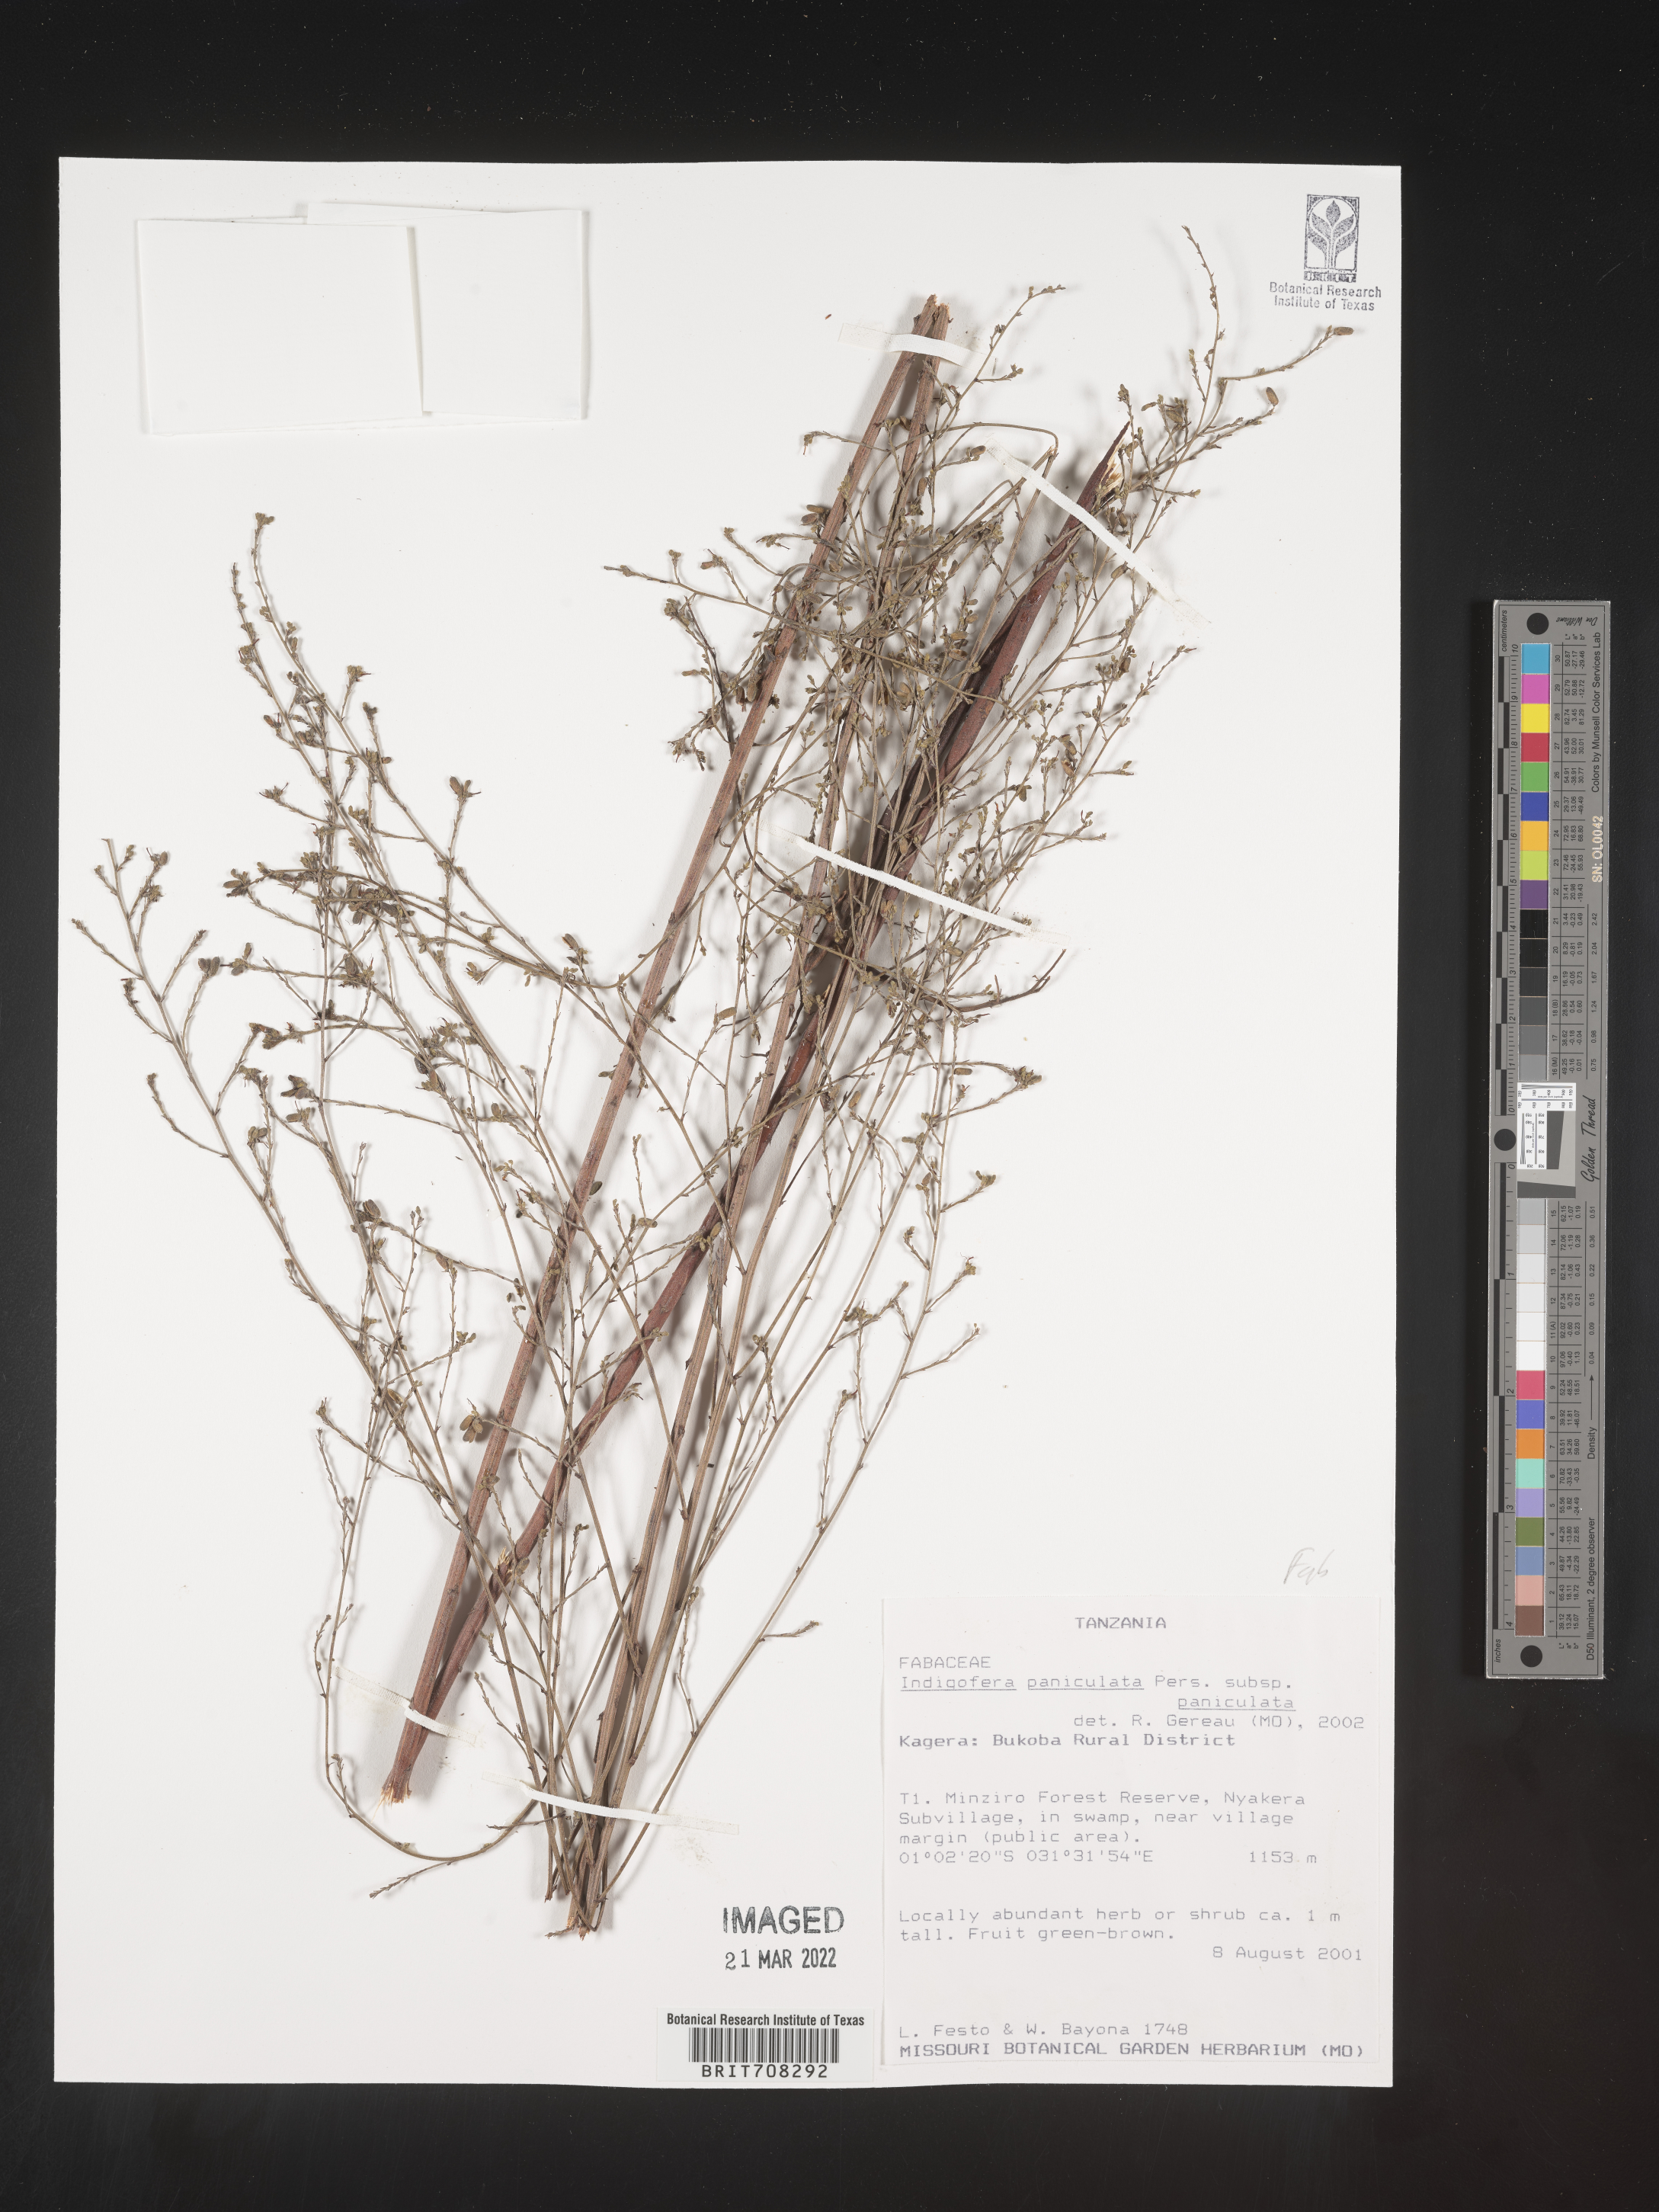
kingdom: Plantae
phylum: Tracheophyta
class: Magnoliopsida
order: Fabales
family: Fabaceae
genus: Indigofera
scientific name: Indigofera
